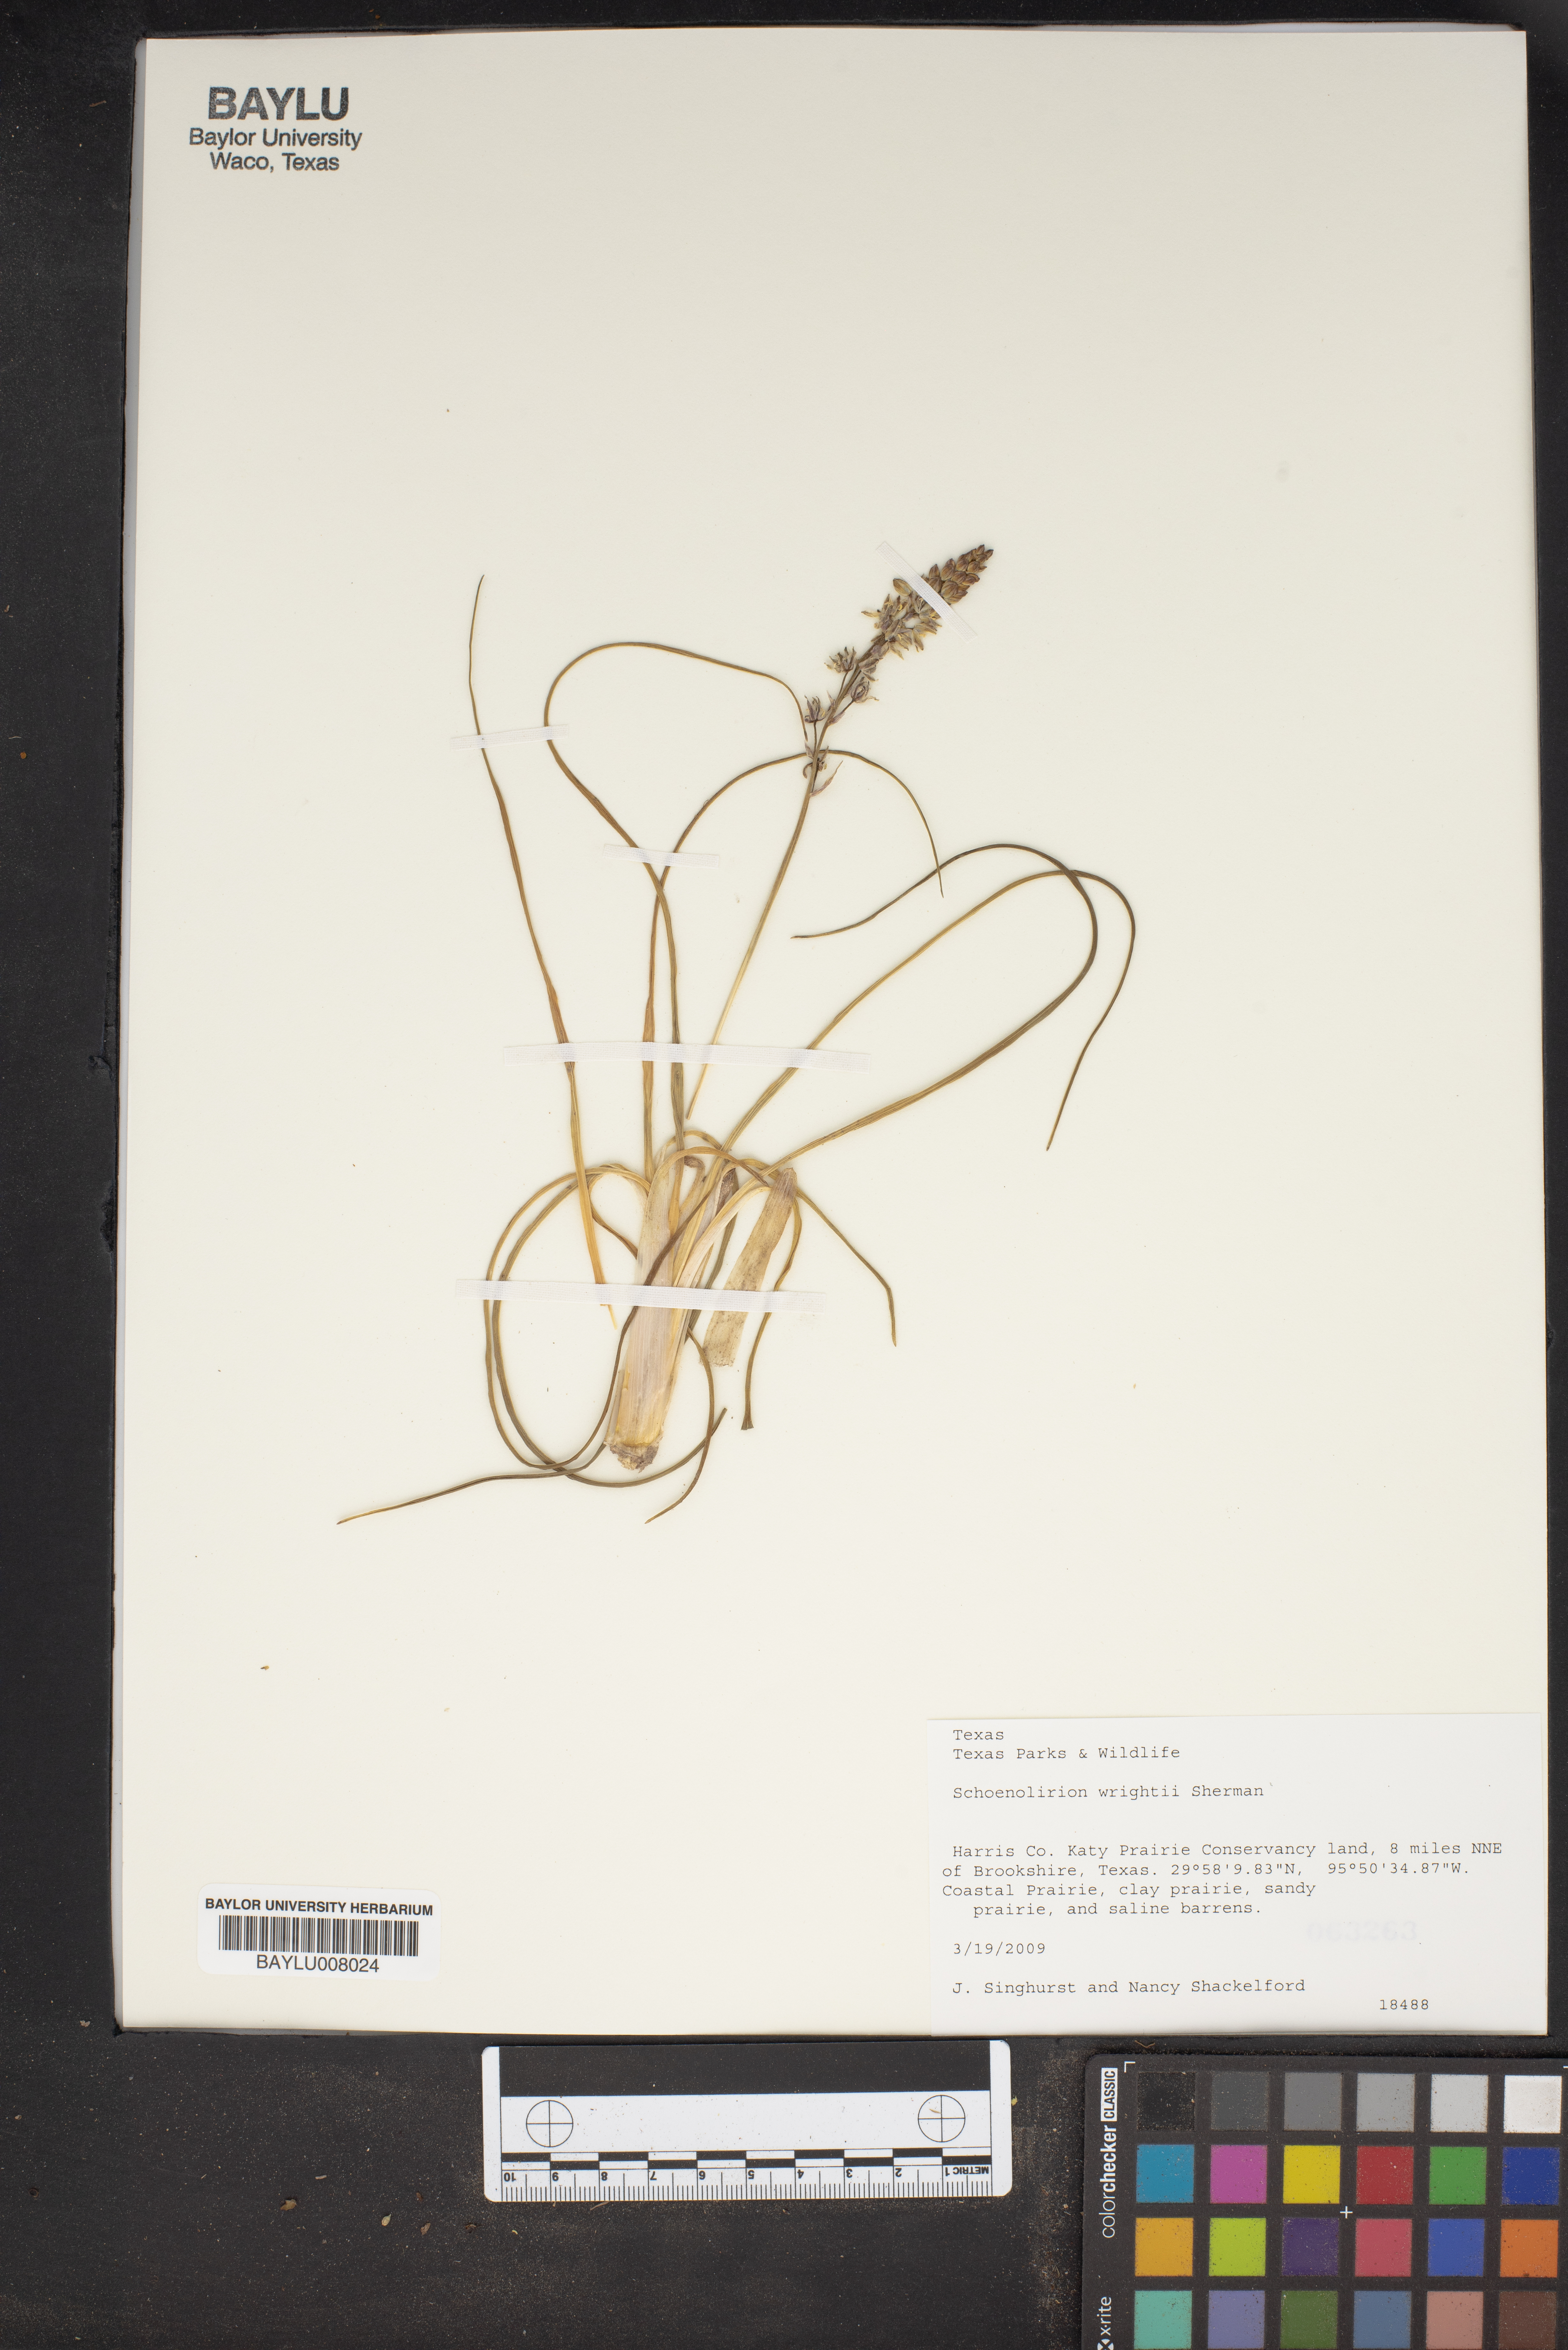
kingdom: Plantae
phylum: Tracheophyta
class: Liliopsida
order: Asparagales
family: Asparagaceae
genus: Schoenolirion
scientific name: Schoenolirion wrightii
